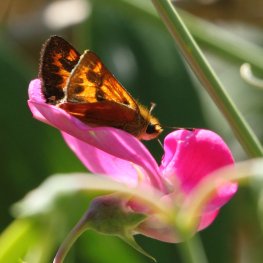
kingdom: Animalia
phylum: Arthropoda
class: Insecta
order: Lepidoptera
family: Hesperiidae
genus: Ochlodes
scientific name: Ochlodes sylvanoides
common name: Woodland Skipper
